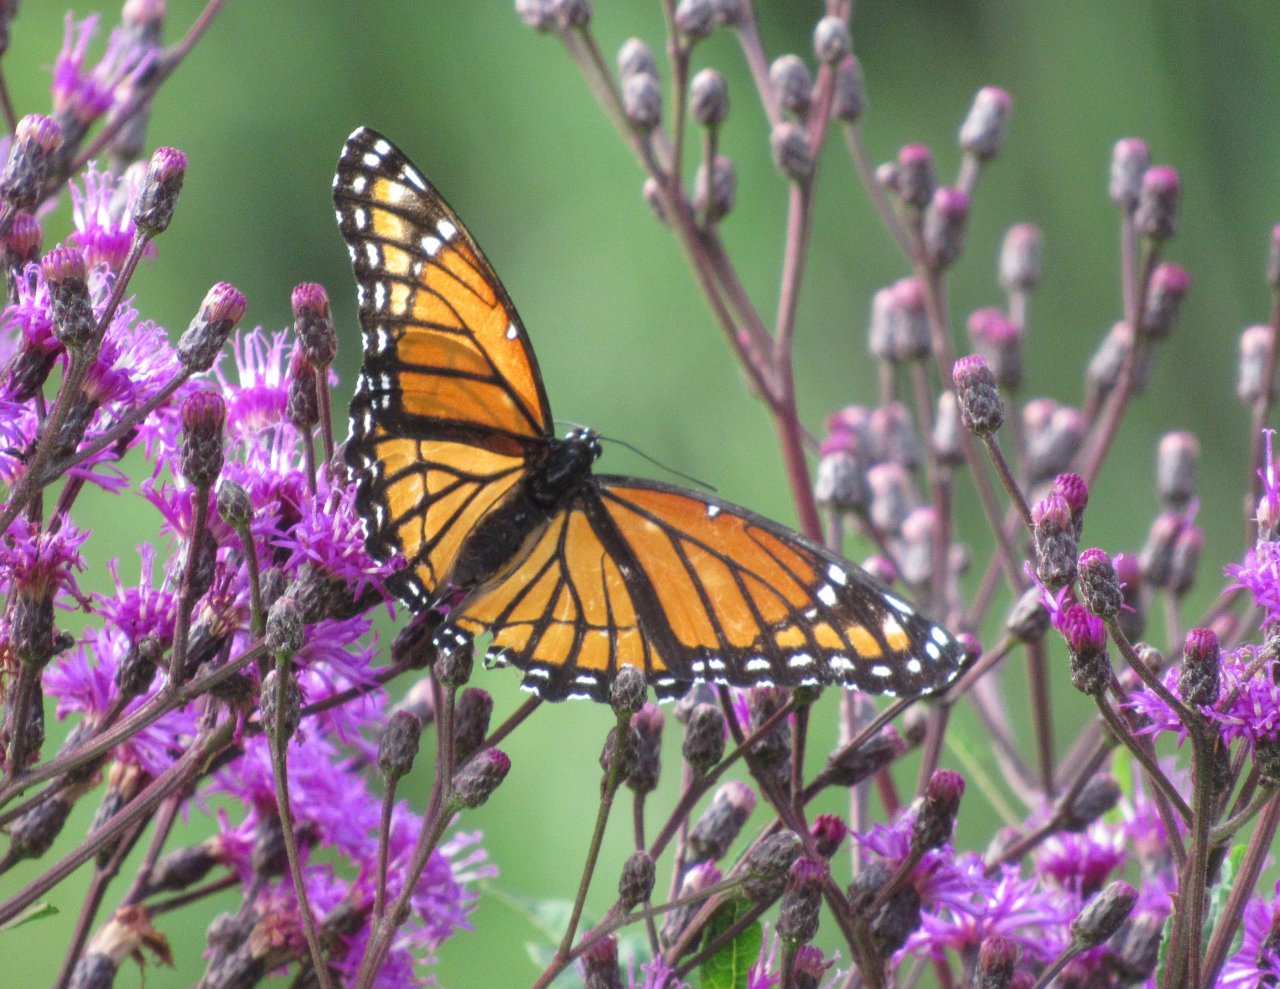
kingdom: Animalia
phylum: Arthropoda
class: Insecta
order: Lepidoptera
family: Nymphalidae
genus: Limenitis
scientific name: Limenitis archippus
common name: Viceroy
